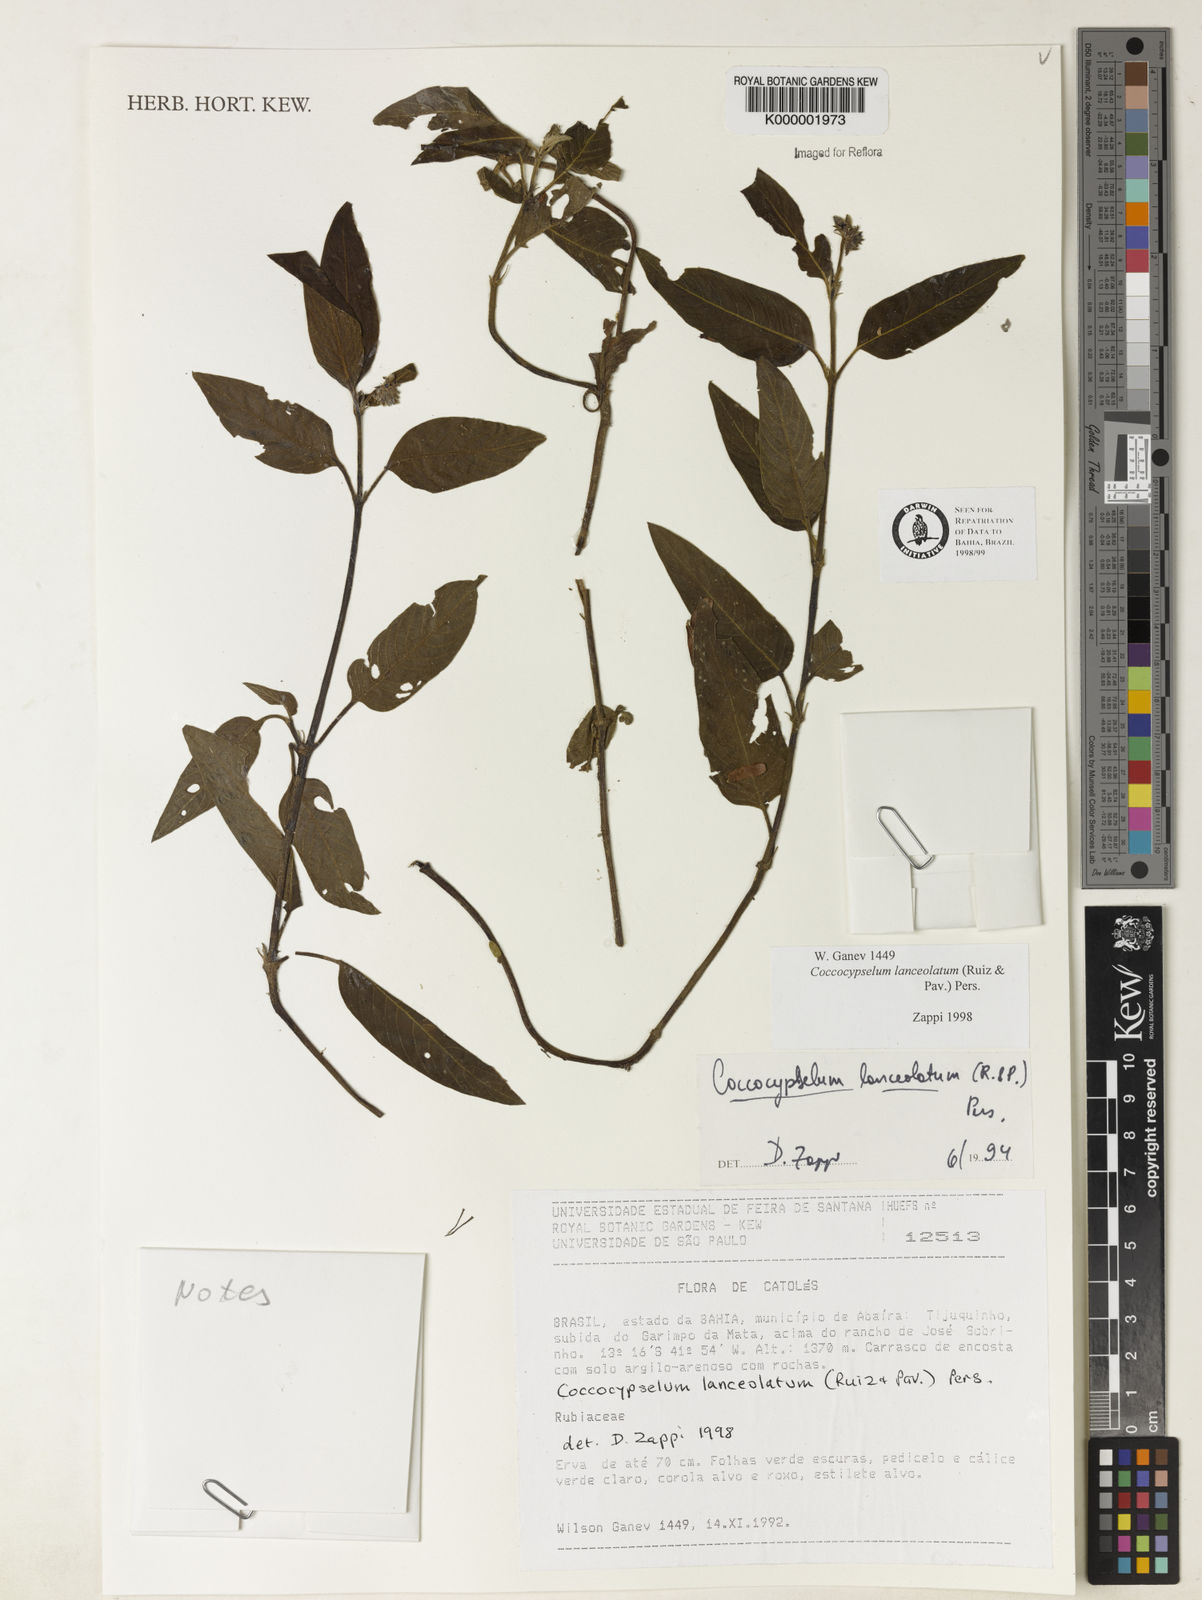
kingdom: Plantae
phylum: Tracheophyta
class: Magnoliopsida
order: Gentianales
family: Rubiaceae
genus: Coccocypselum
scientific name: Coccocypselum lanceolatum
